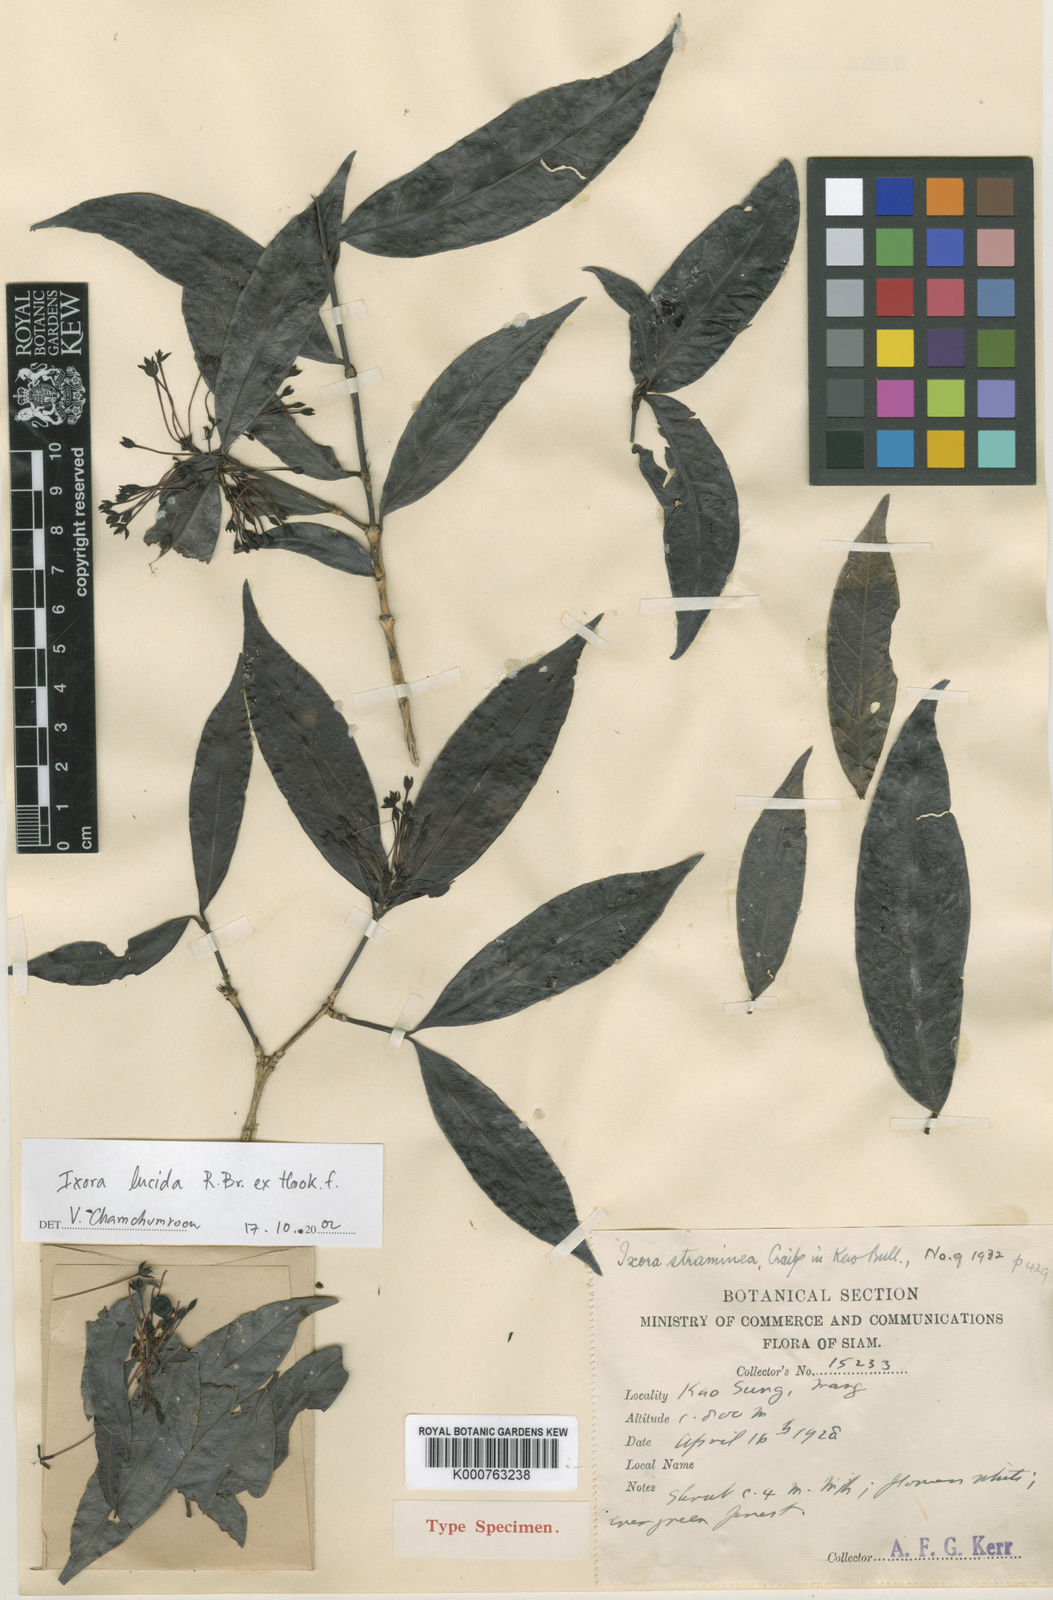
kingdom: Plantae
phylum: Tracheophyta
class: Magnoliopsida
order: Gentianales
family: Rubiaceae
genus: Ixora
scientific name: Ixora lucida
